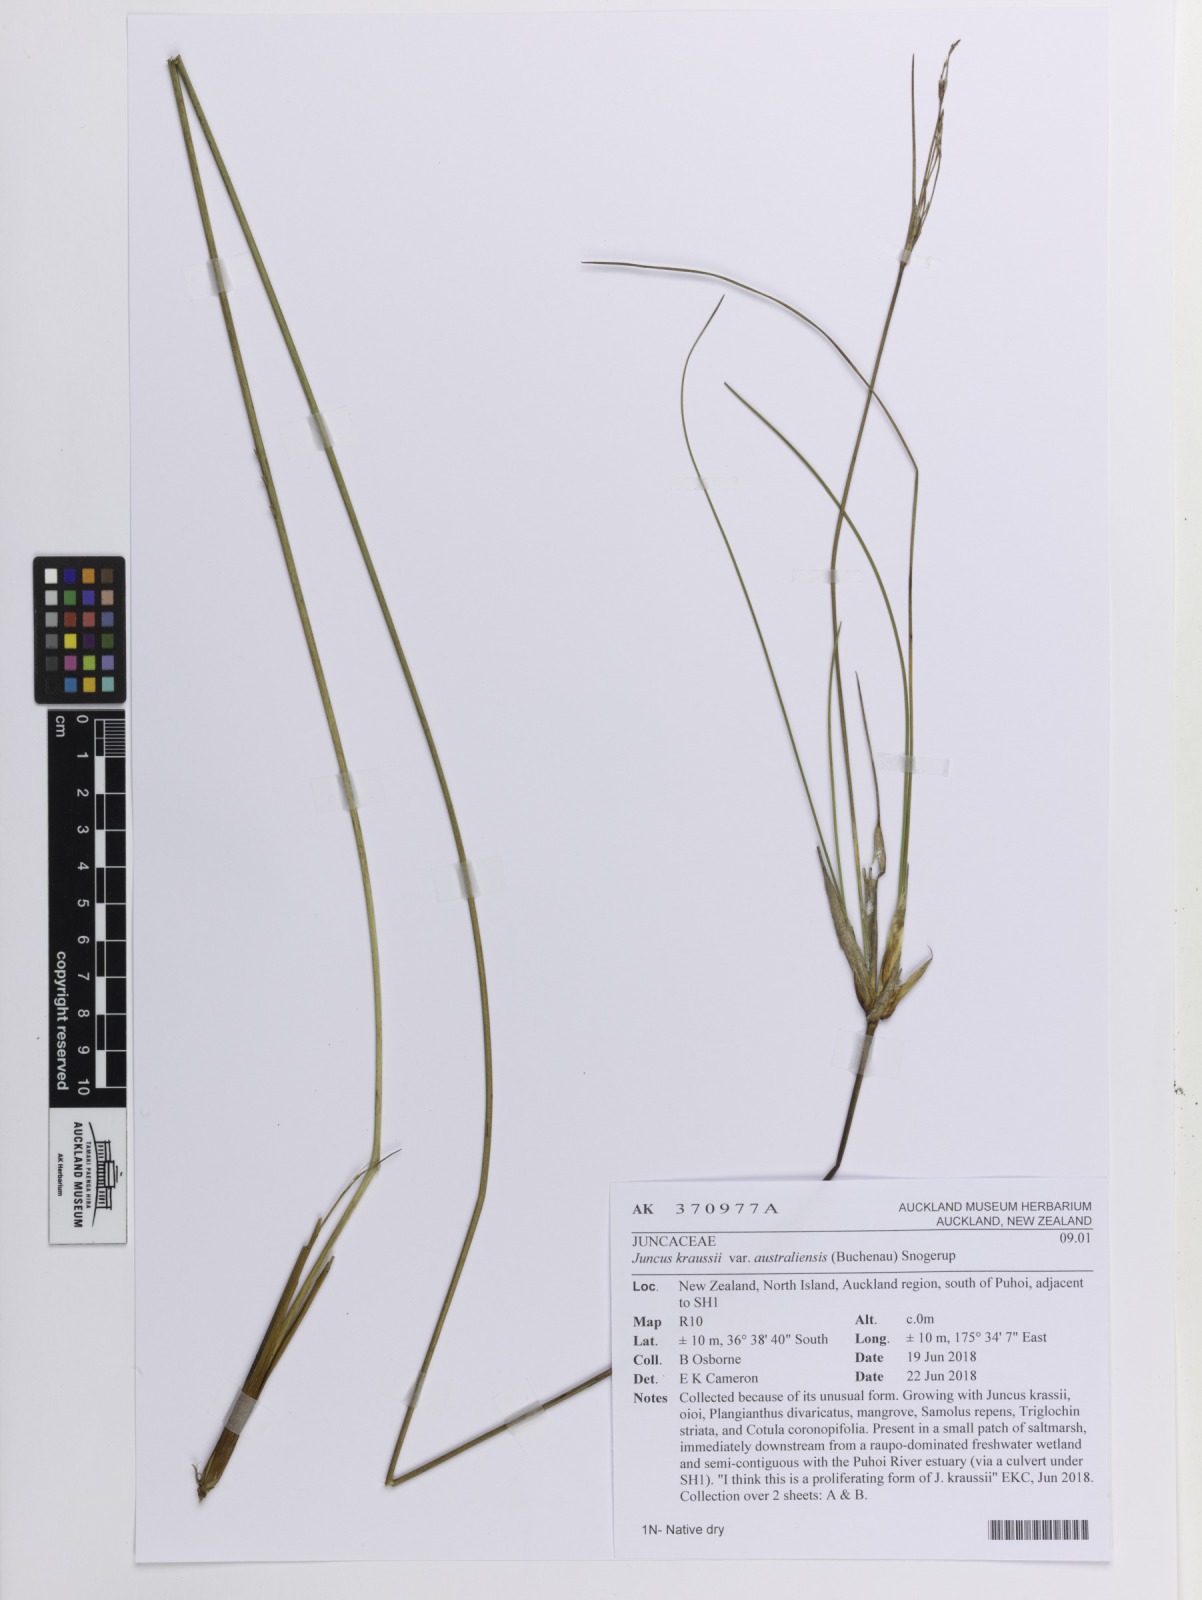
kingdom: Plantae
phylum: Tracheophyta
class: Liliopsida
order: Poales
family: Juncaceae
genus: Juncus
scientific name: Juncus kraussii
